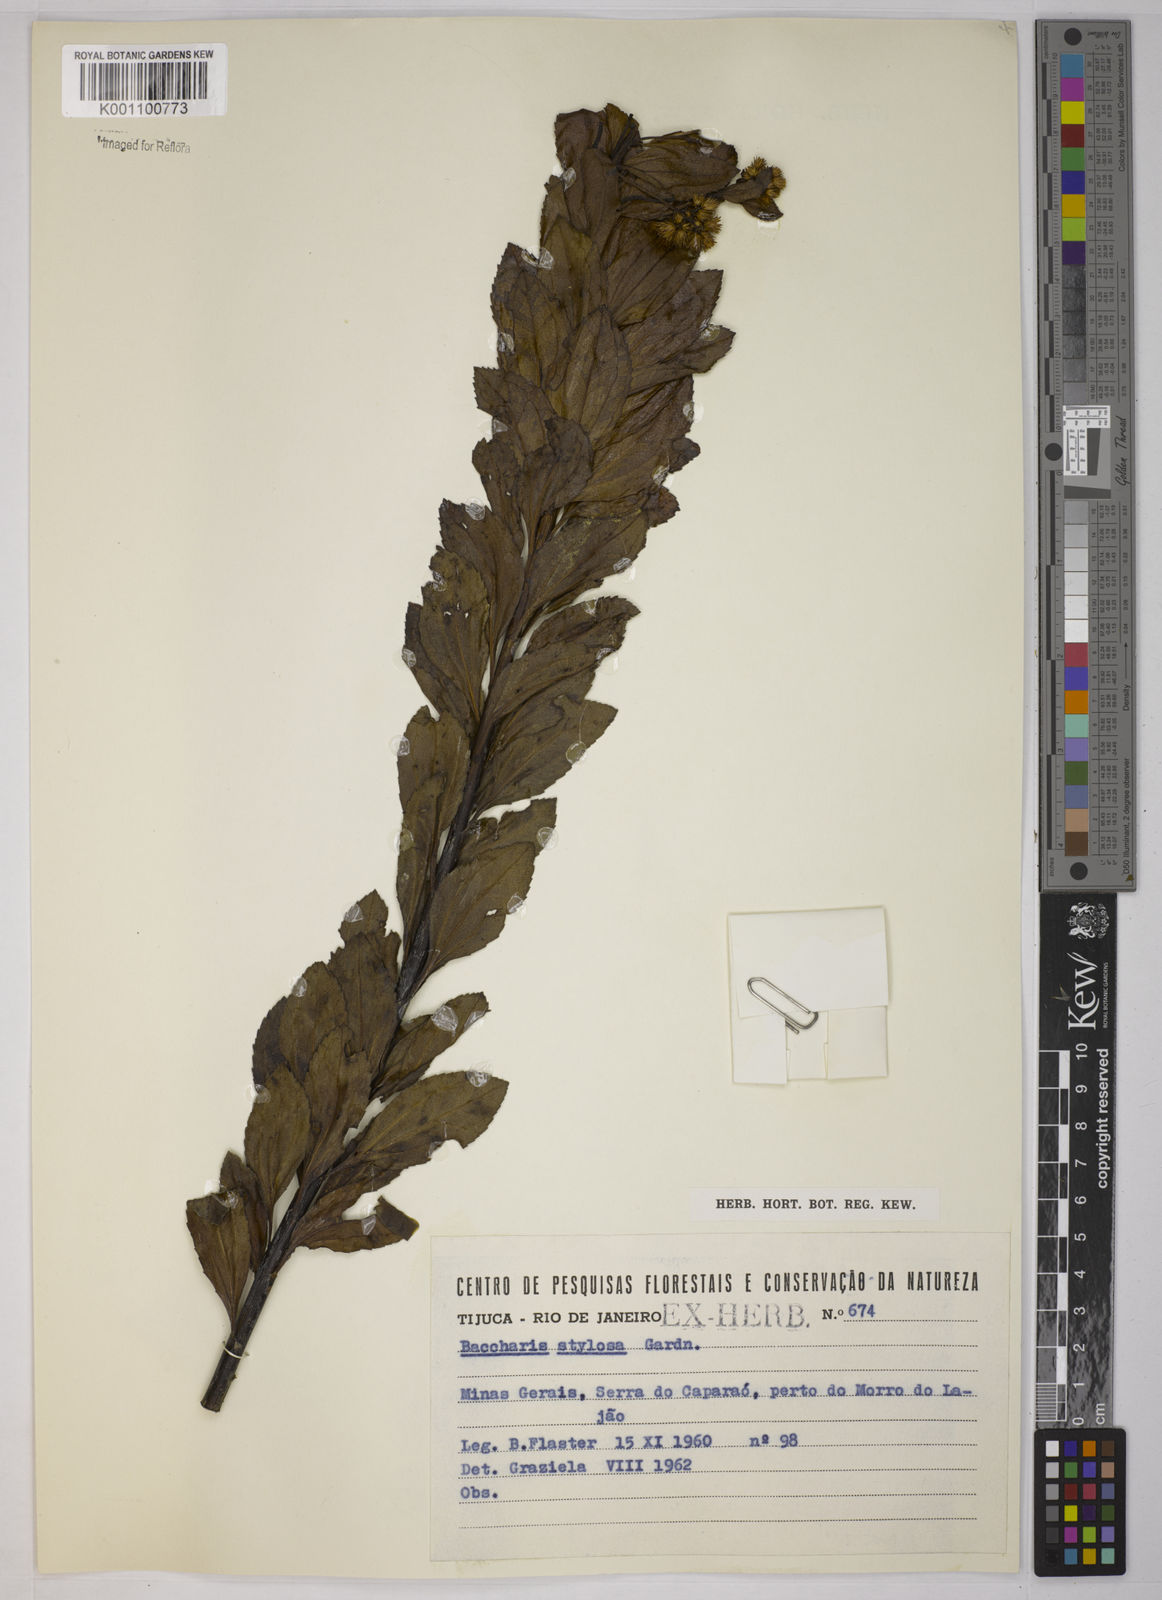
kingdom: Plantae
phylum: Tracheophyta
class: Magnoliopsida
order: Asterales
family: Asteraceae
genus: Baccharis
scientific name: Baccharis stylosa
